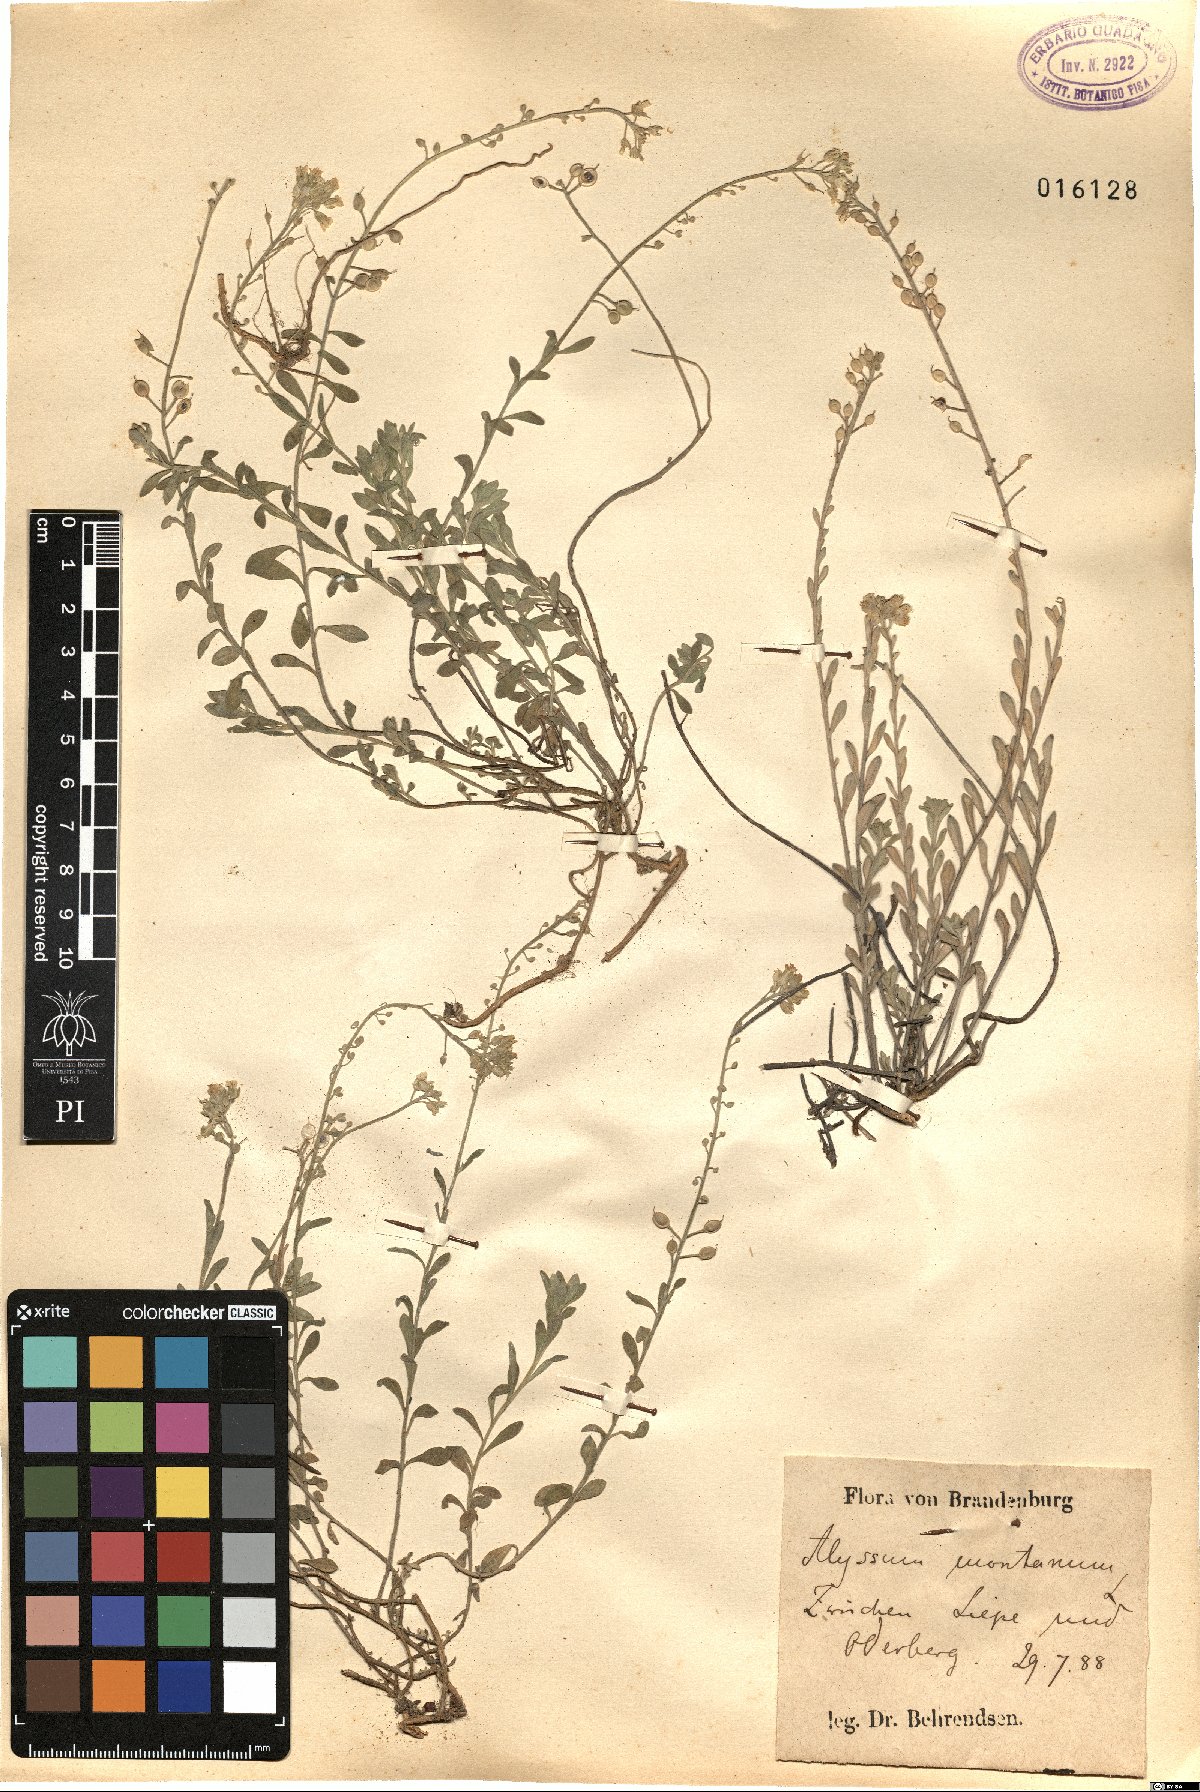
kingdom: Plantae
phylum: Tracheophyta
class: Magnoliopsida
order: Brassicales
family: Brassicaceae
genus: Alyssum
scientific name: Alyssum montanum
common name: Mountain alison
